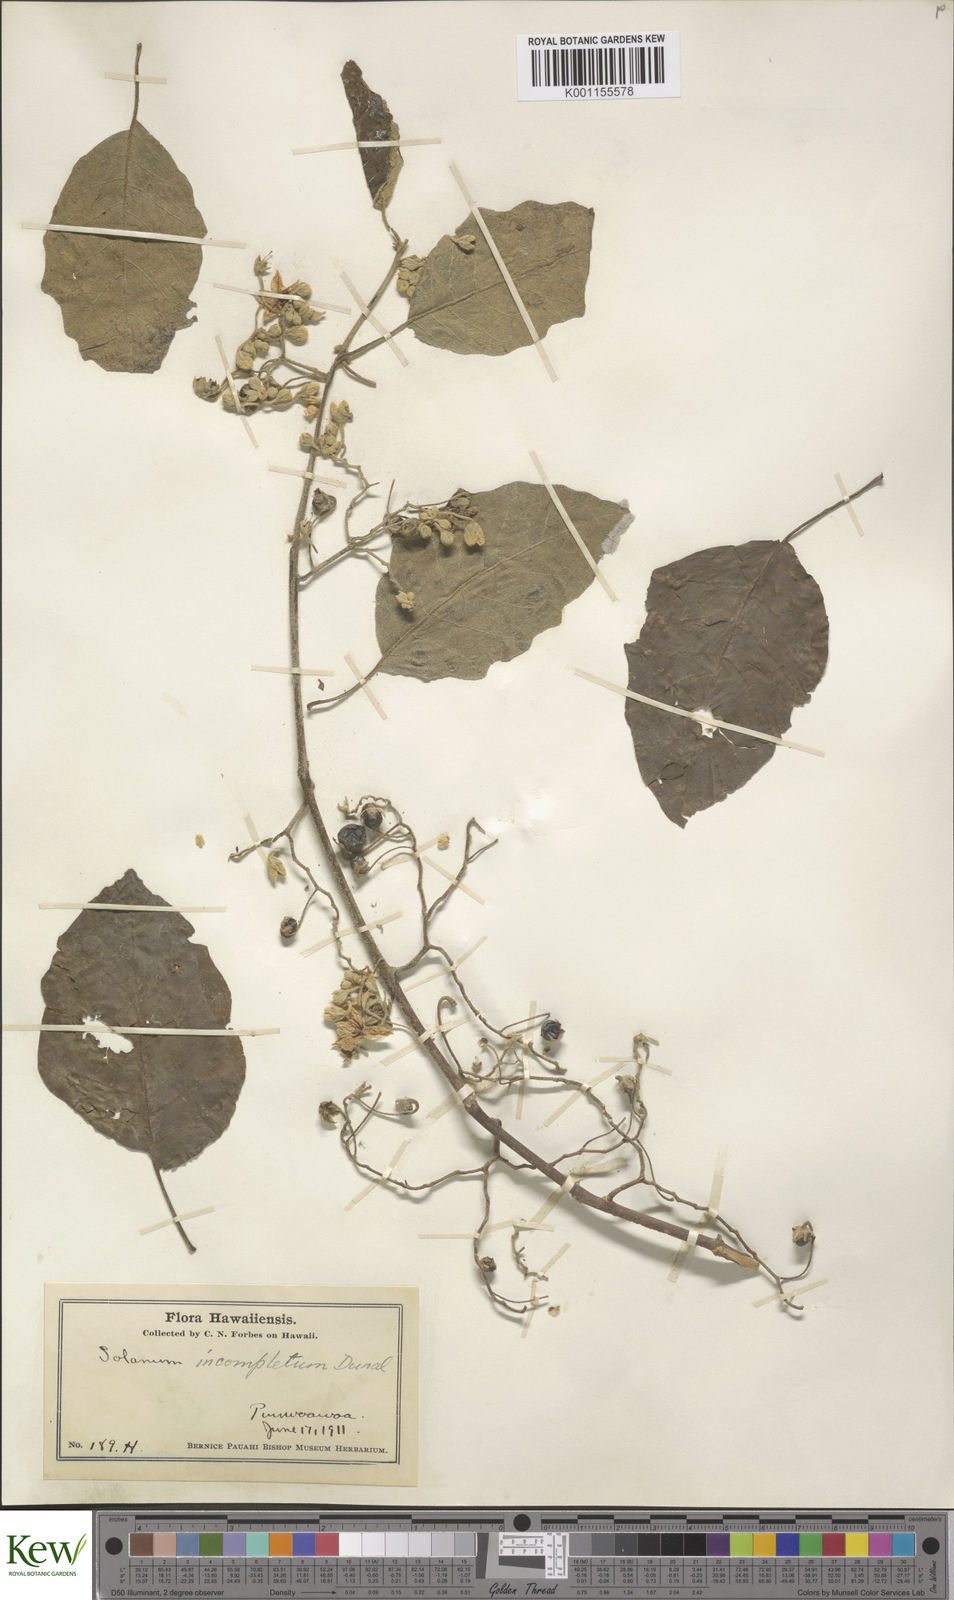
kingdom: Plantae
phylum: Tracheophyta
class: Magnoliopsida
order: Solanales
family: Solanaceae
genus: Solanum
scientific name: Solanum incompletum
